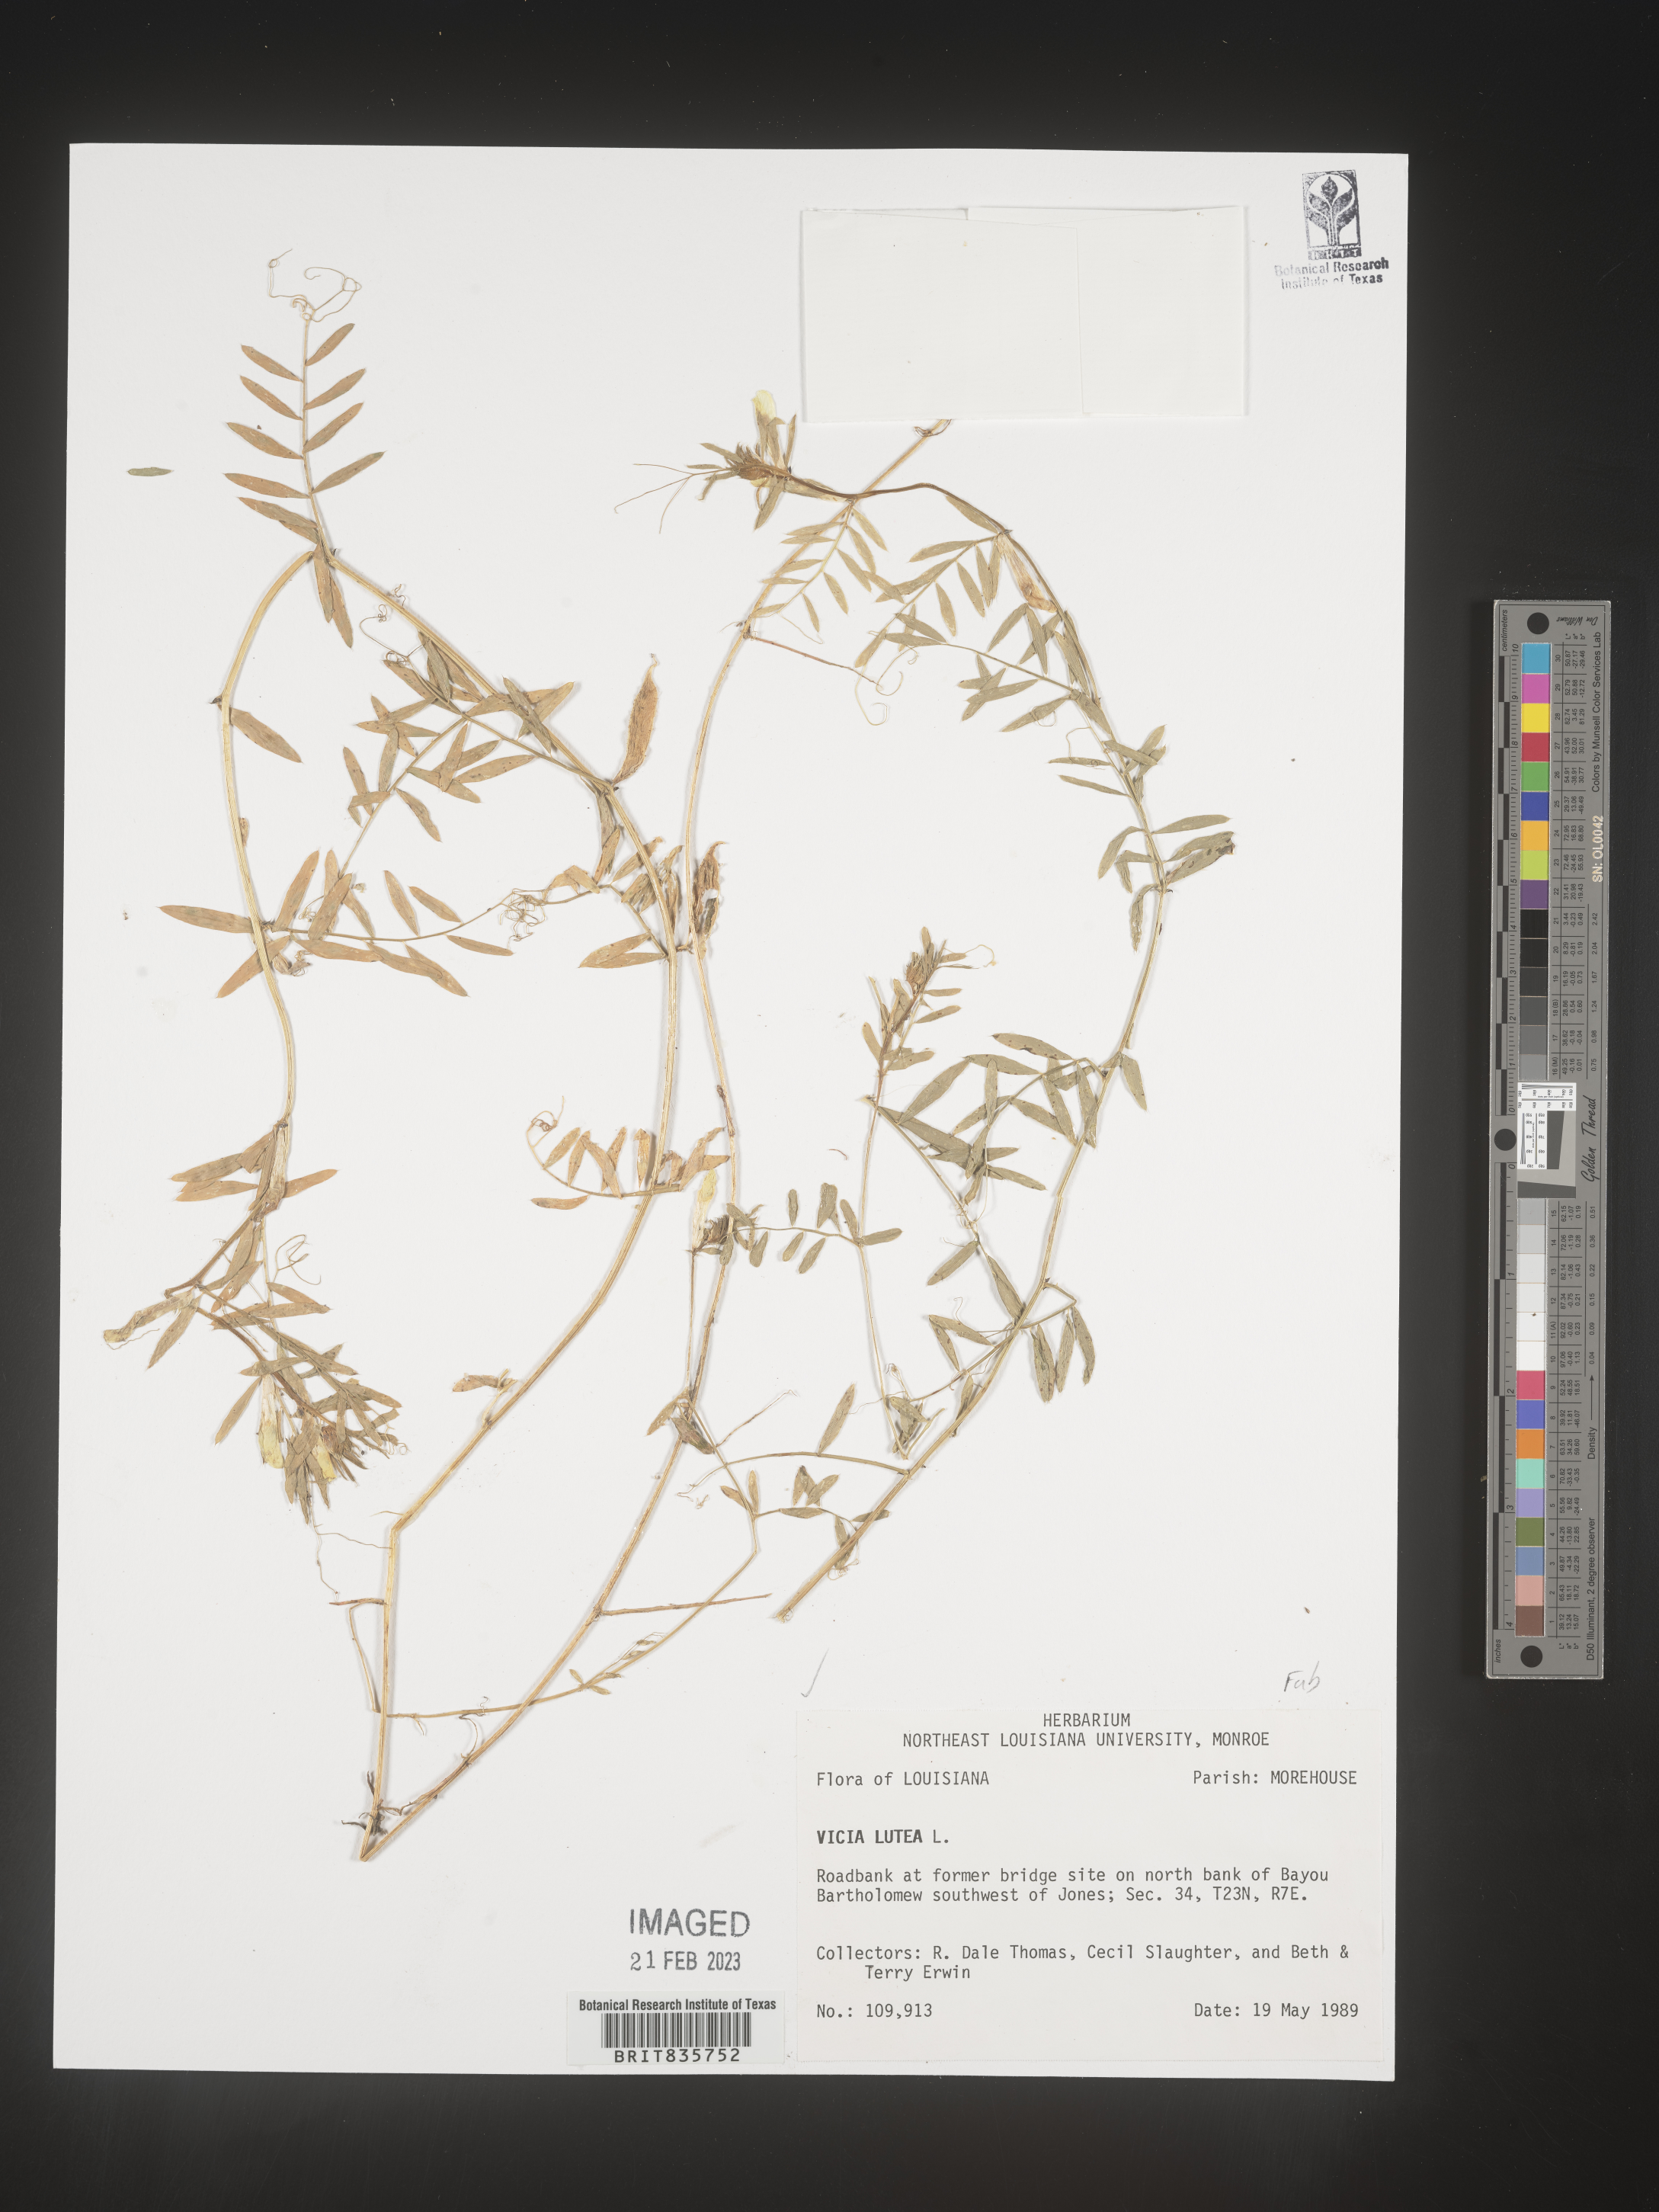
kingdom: Plantae
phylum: Tracheophyta
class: Magnoliopsida
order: Fabales
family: Fabaceae
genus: Vicia
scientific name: Vicia
